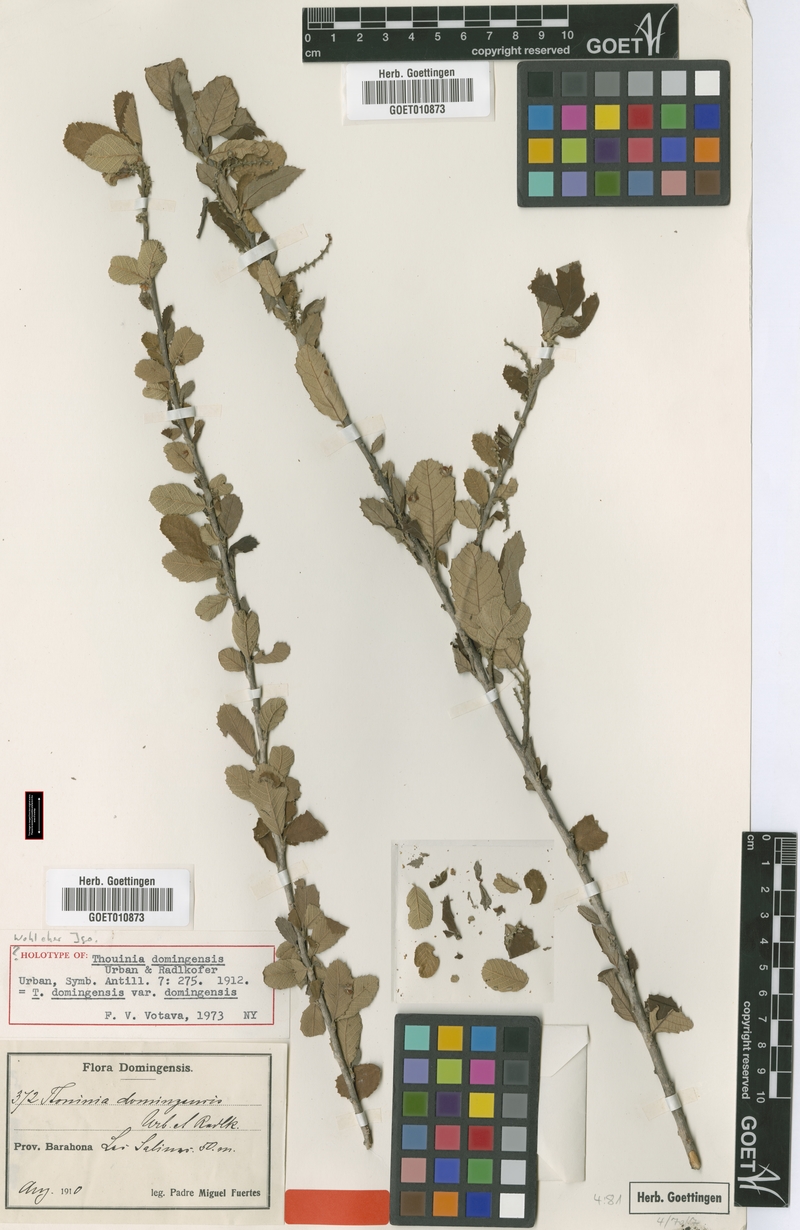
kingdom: Plantae
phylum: Tracheophyta
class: Magnoliopsida
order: Sapindales
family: Sapindaceae
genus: Thouinia
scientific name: Thouinia domingensis
